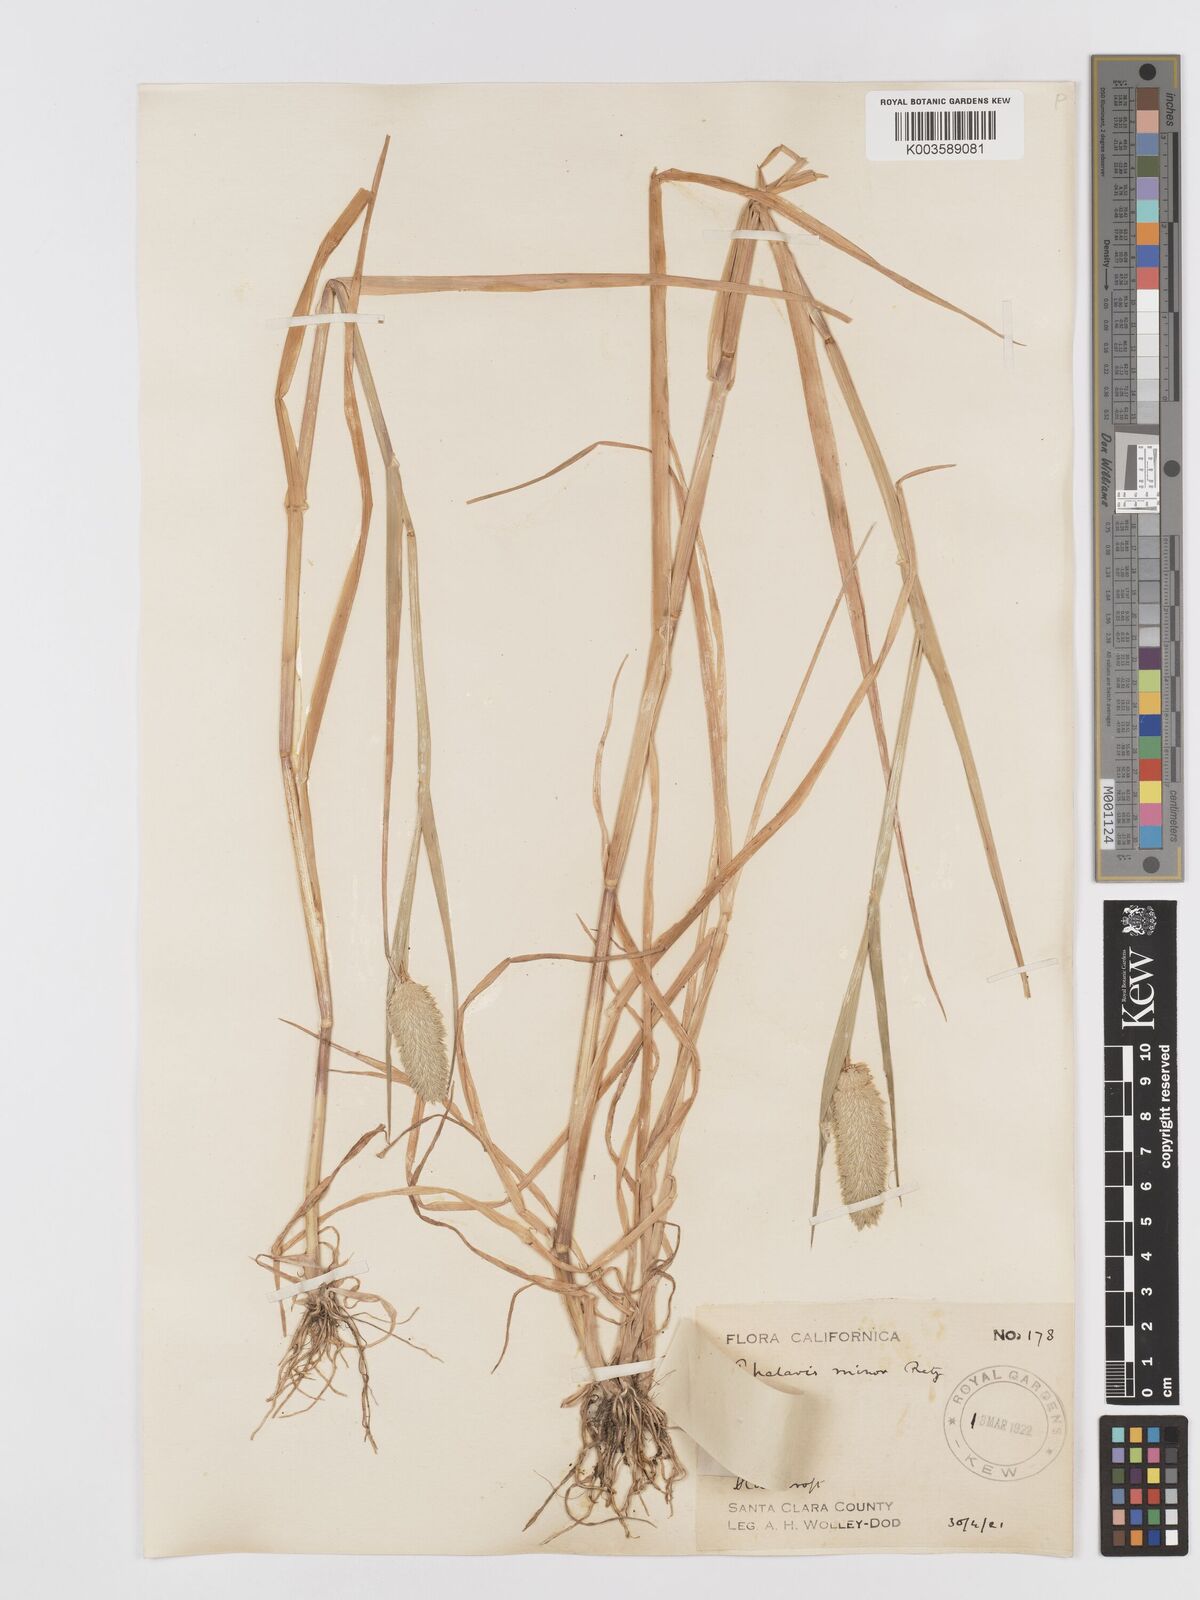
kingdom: Plantae
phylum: Tracheophyta
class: Liliopsida
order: Poales
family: Poaceae
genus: Phalaris
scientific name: Phalaris minor
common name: Littleseed canarygrass
